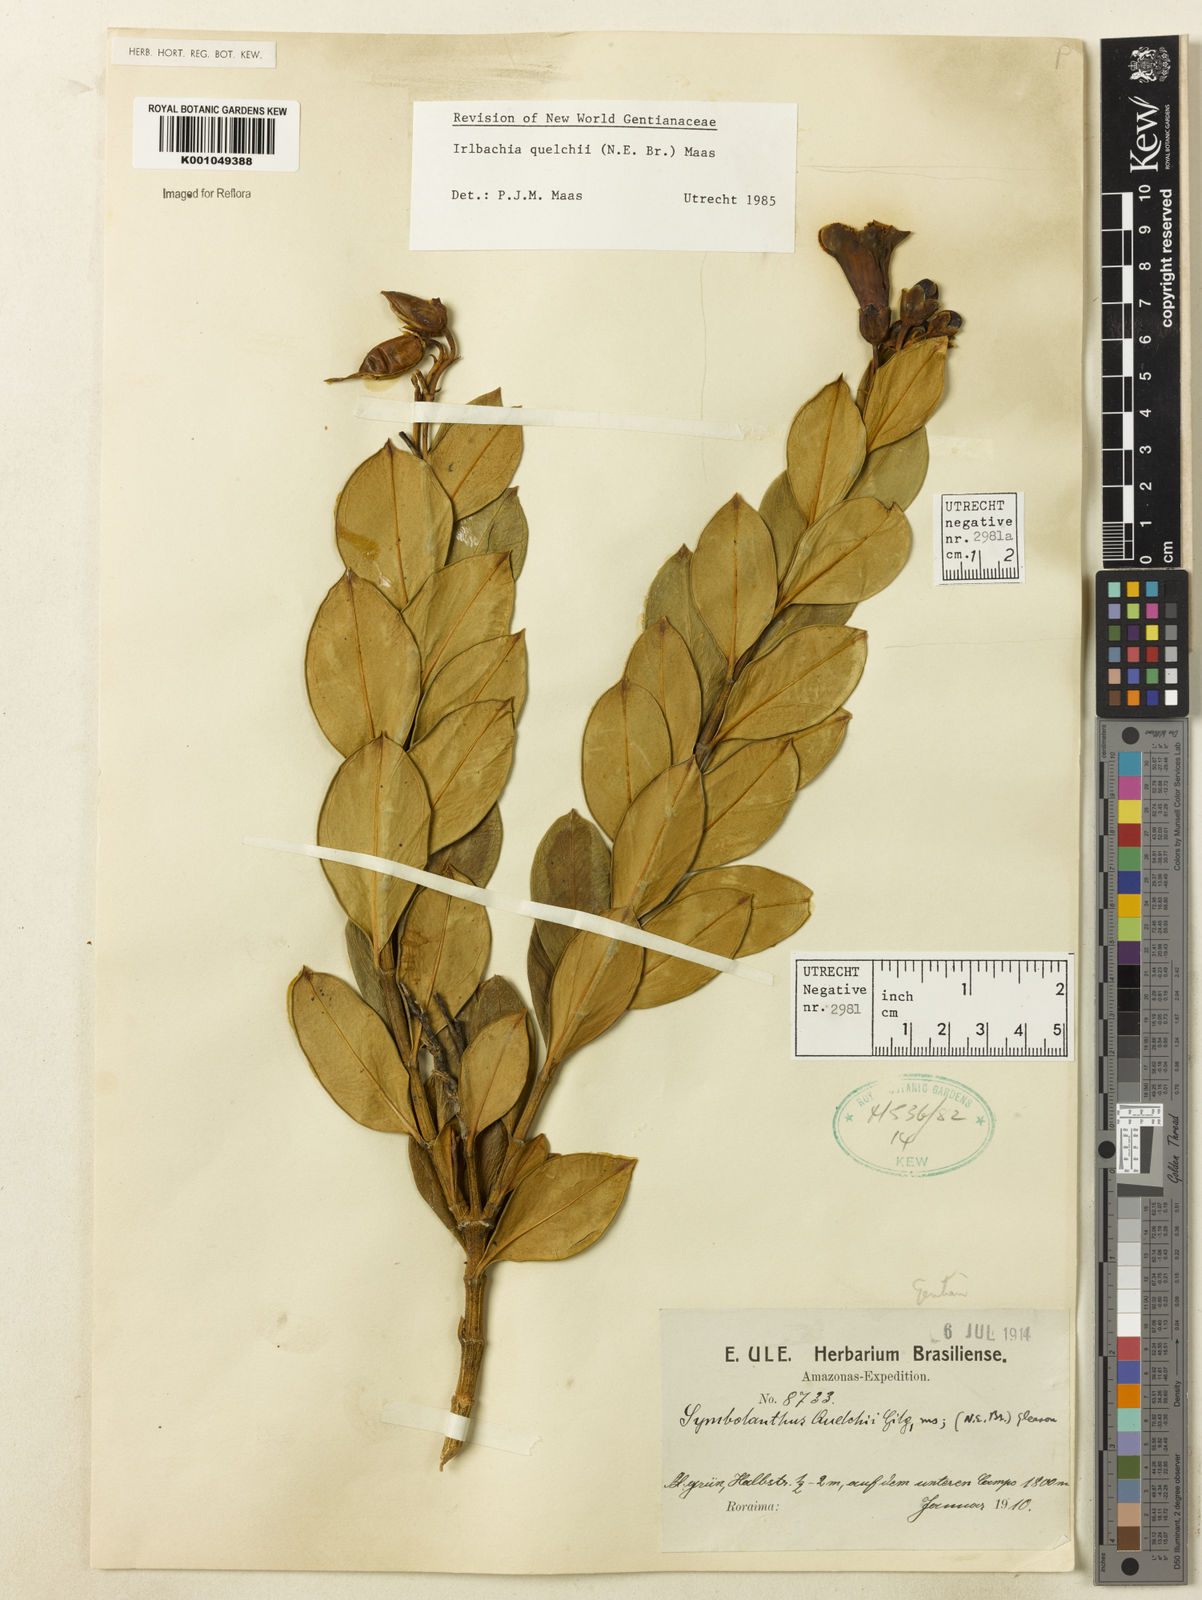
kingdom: Plantae
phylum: Tracheophyta
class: Magnoliopsida
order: Gentianales
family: Gentianaceae
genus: Rogersonanthus
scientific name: Rogersonanthus quelchii
